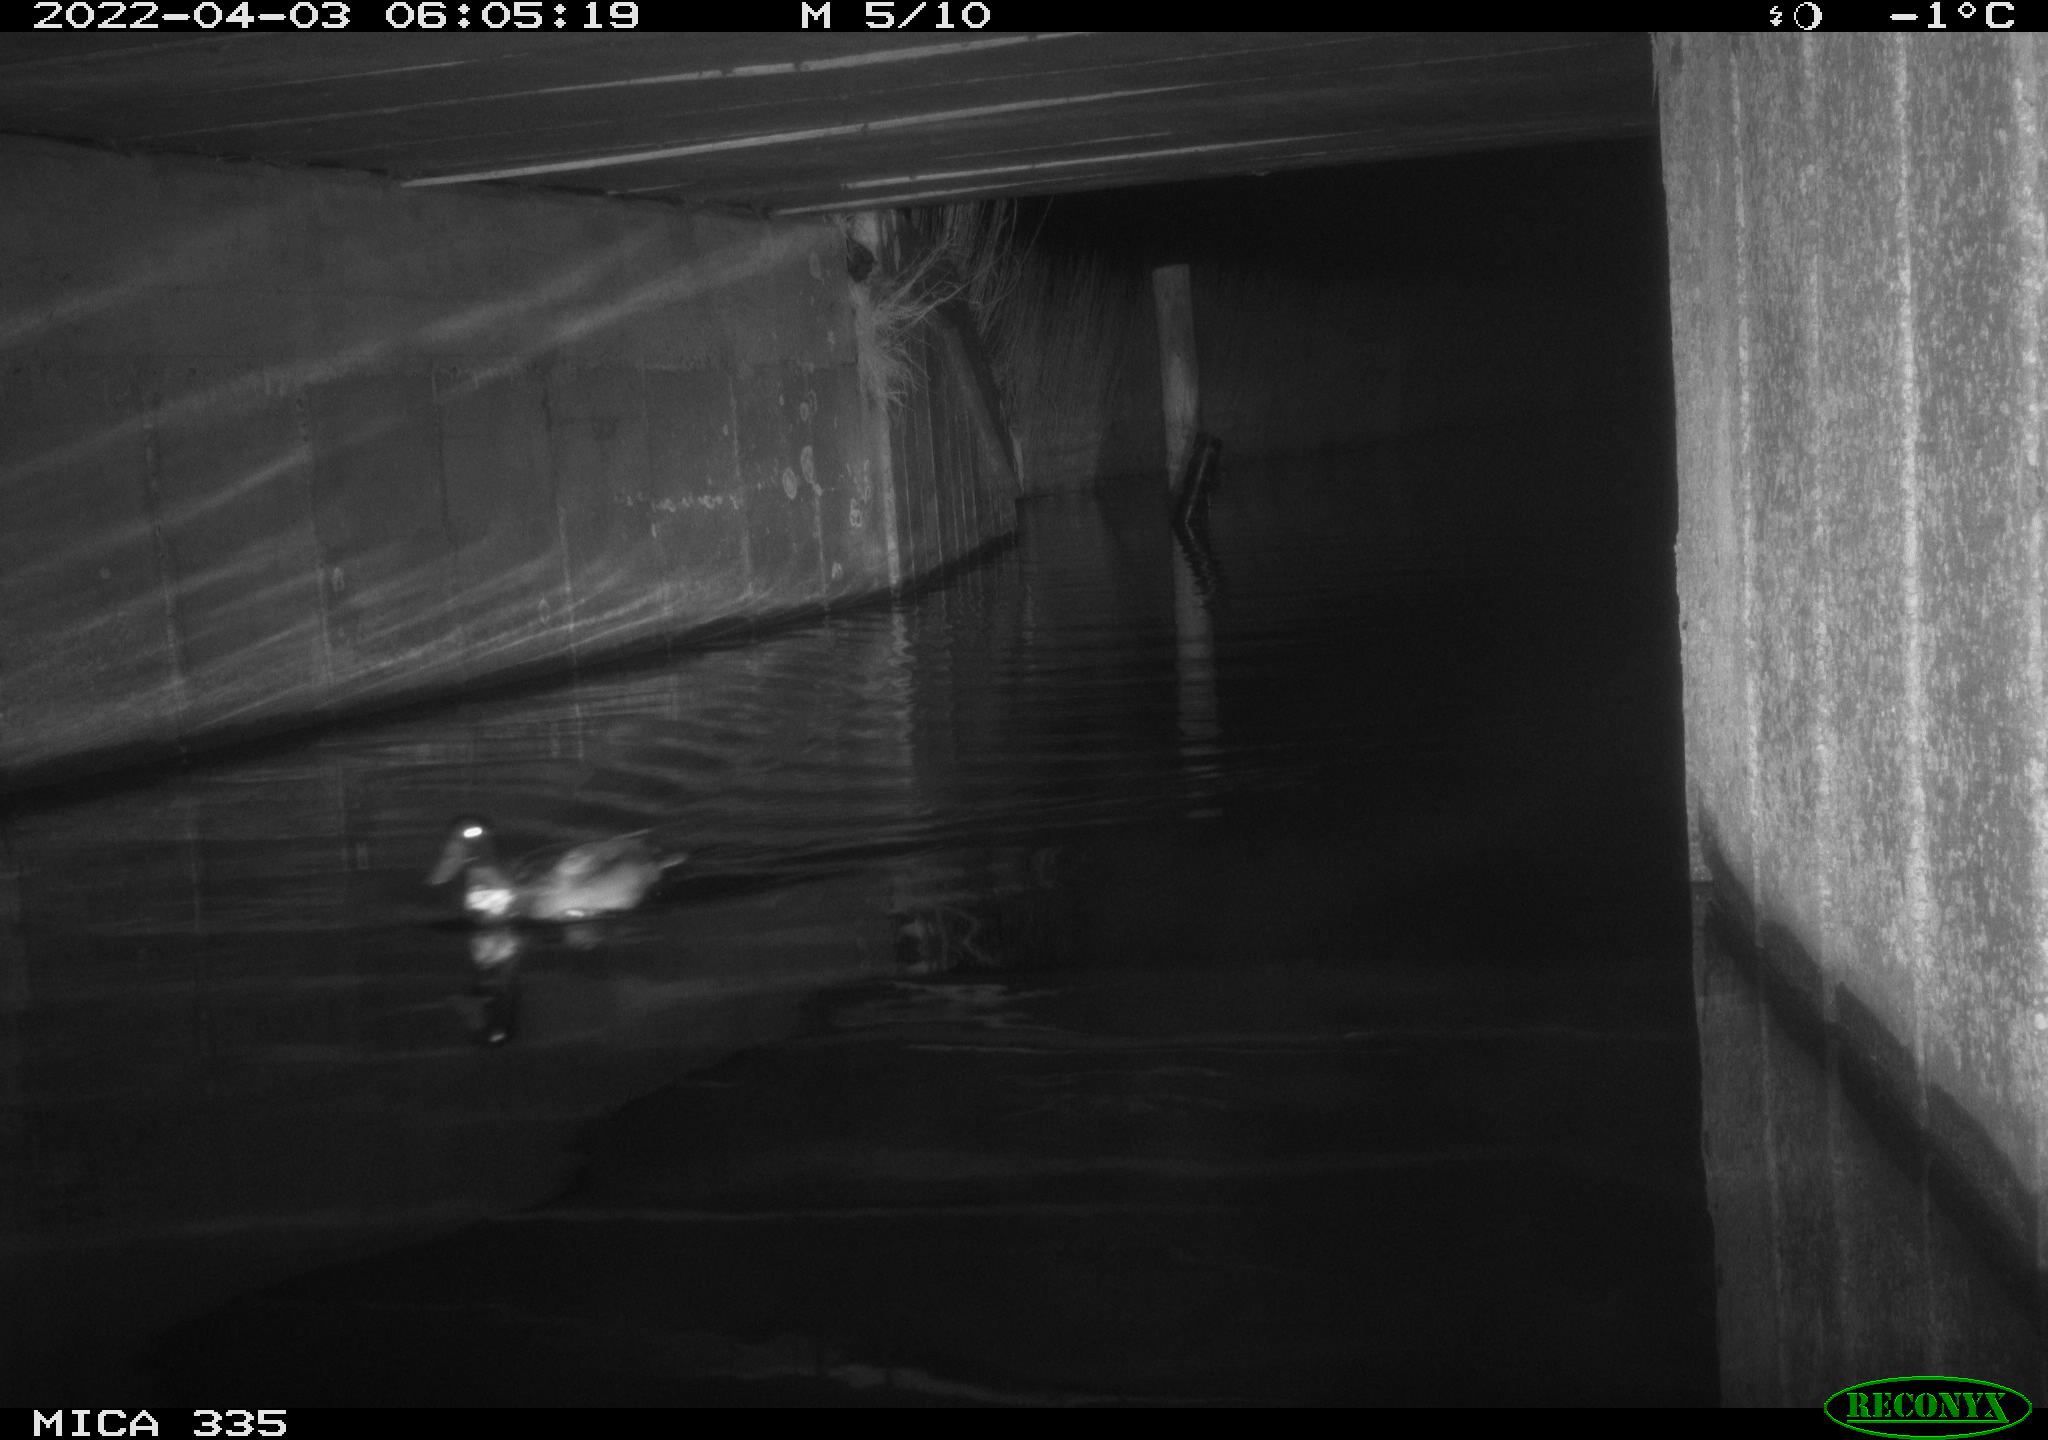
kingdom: Animalia
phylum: Chordata
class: Aves
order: Anseriformes
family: Anatidae
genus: Anas
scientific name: Anas platyrhynchos
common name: Mallard
